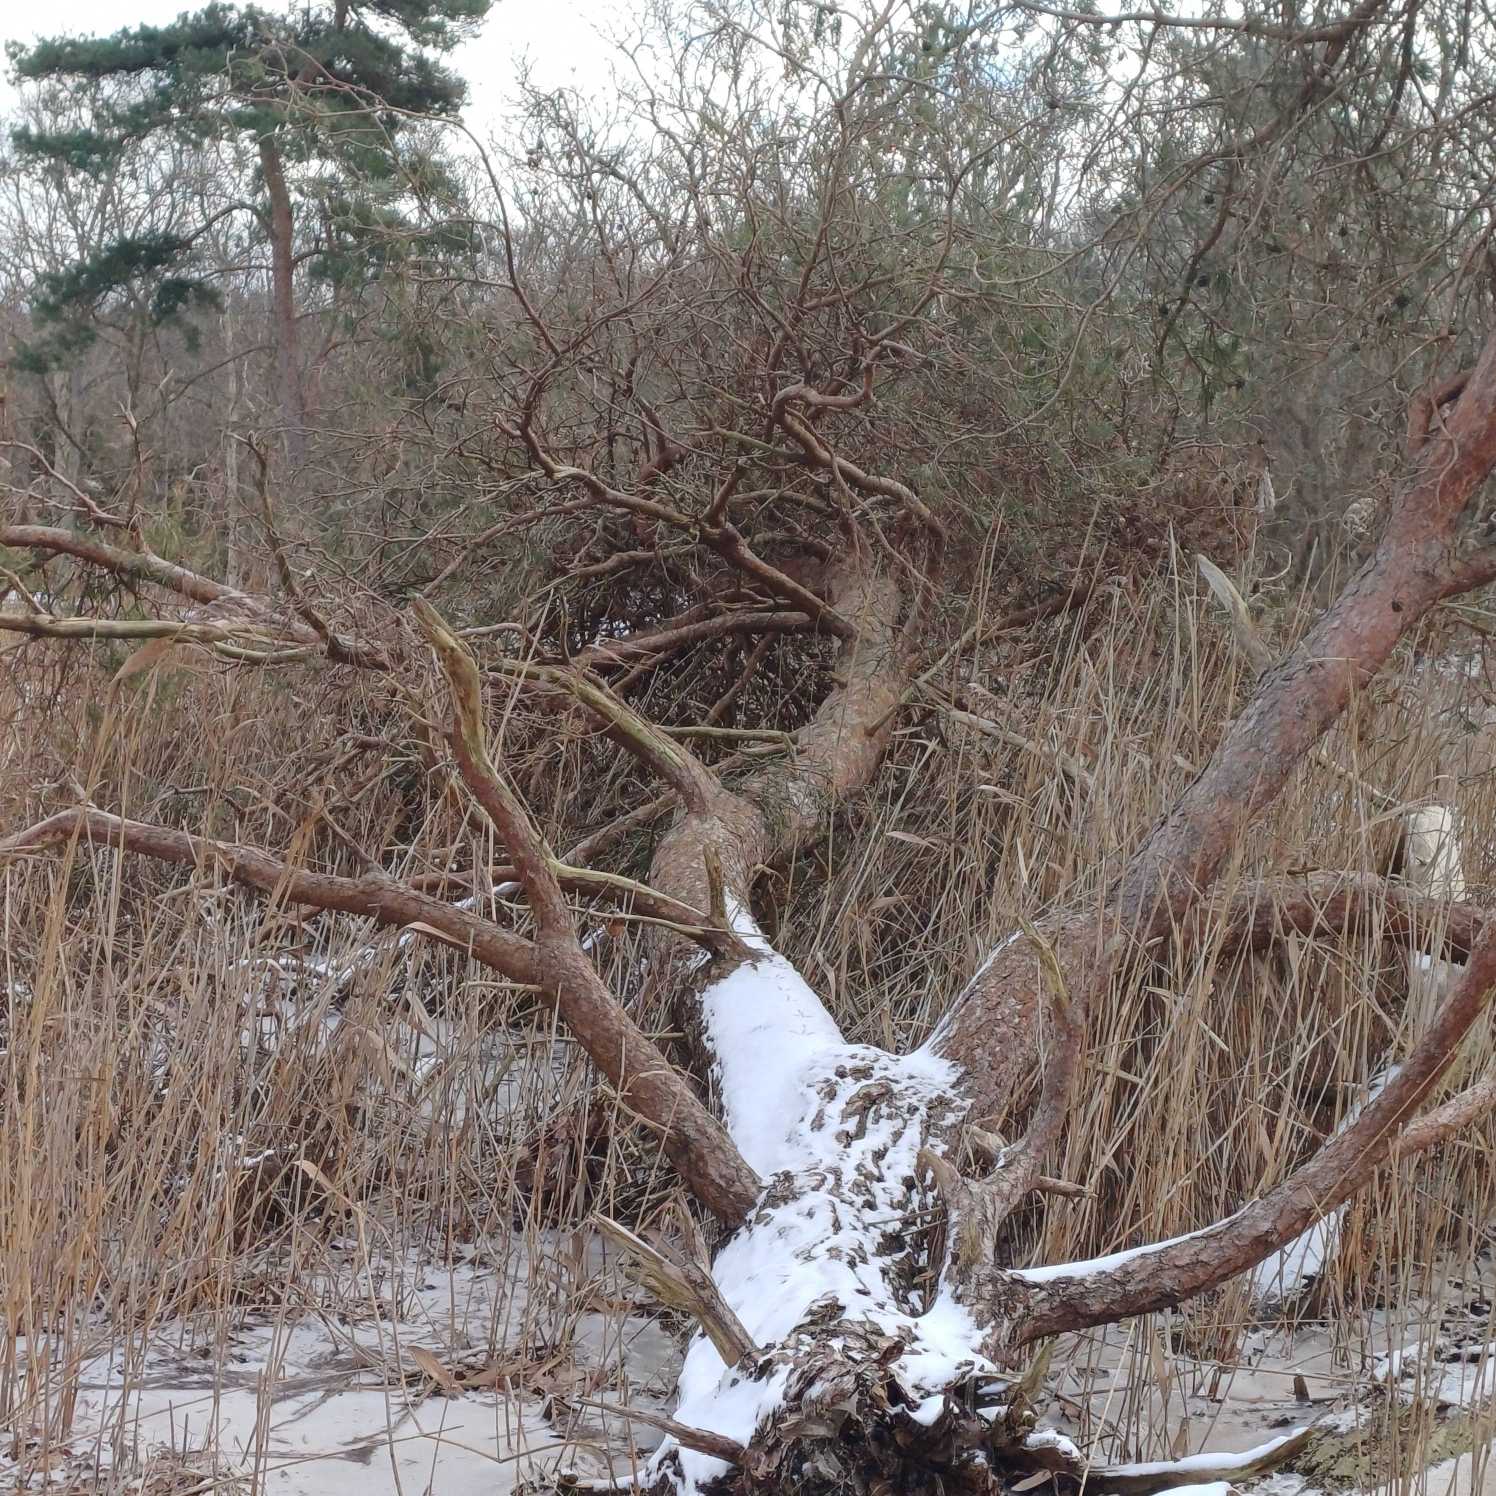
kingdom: Plantae
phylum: Tracheophyta
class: Pinopsida
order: Pinales
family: Pinaceae
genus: Pinus
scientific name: Pinus sylvestris
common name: Skov-fyr
